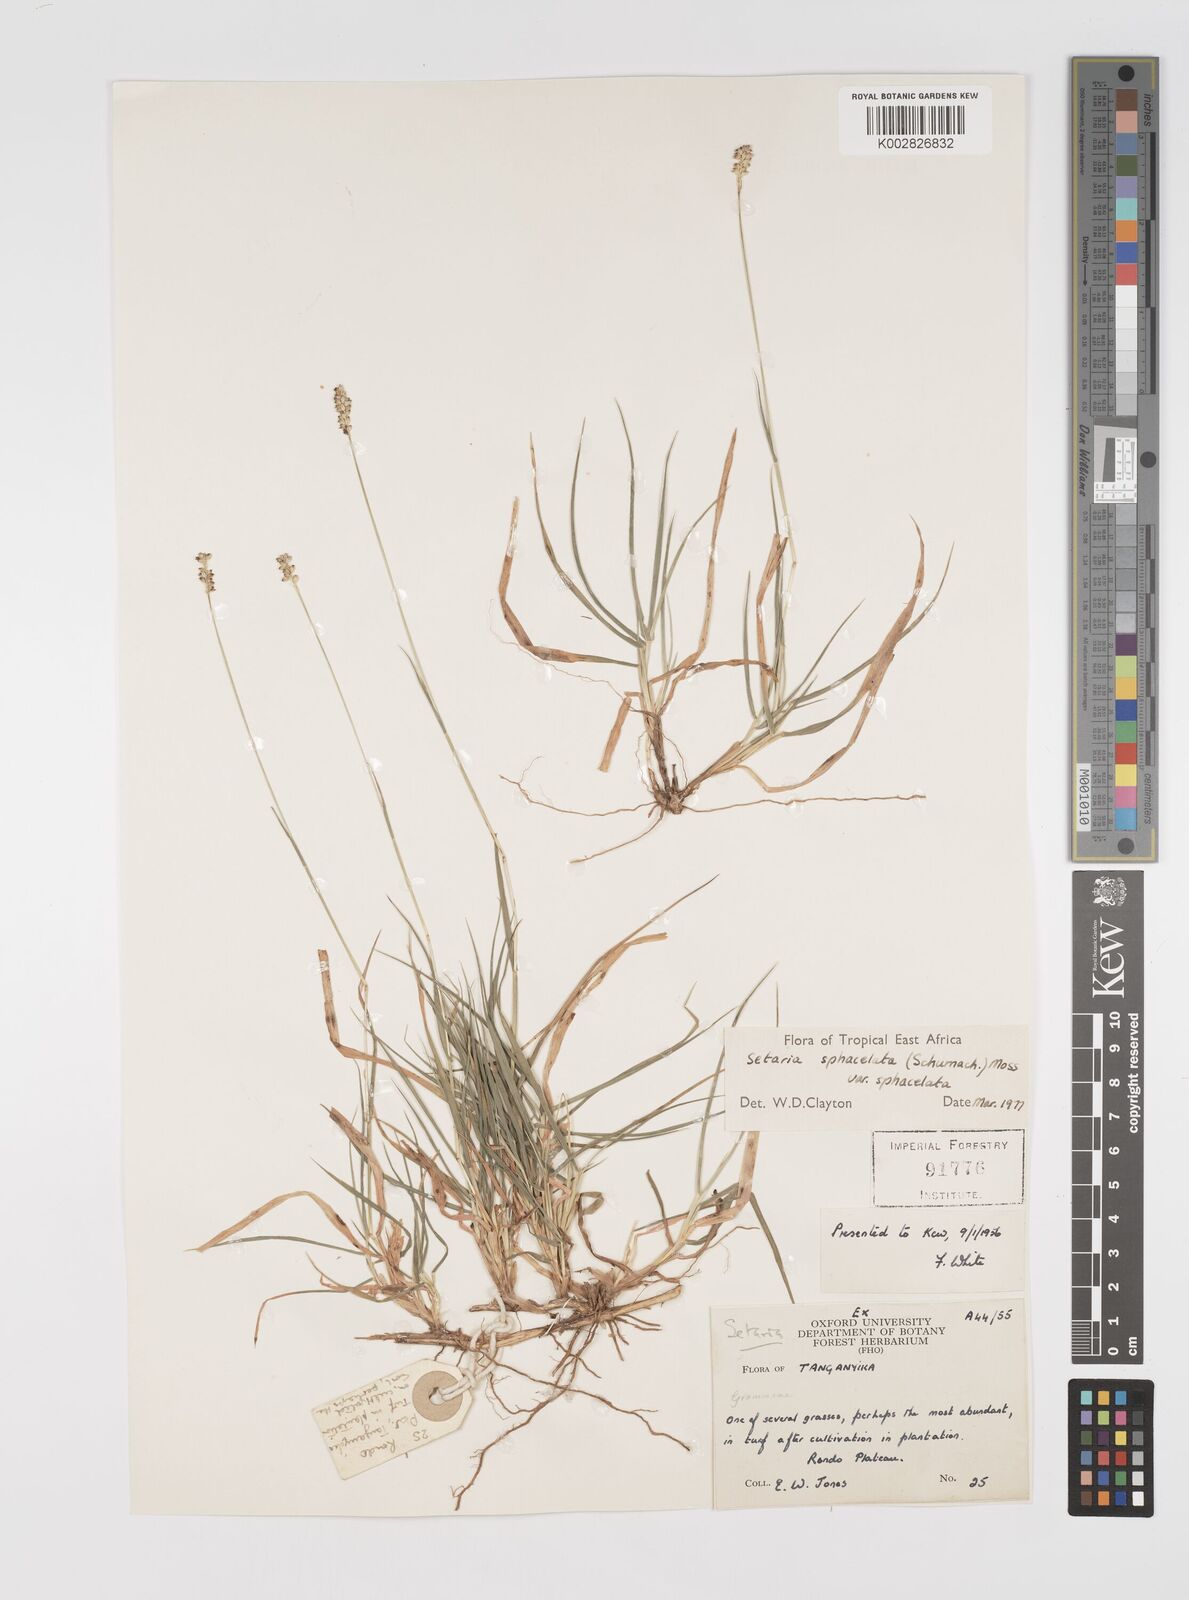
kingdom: Plantae
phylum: Tracheophyta
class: Liliopsida
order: Poales
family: Poaceae
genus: Setaria
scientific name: Setaria sphacelata
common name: African bristlegrass
